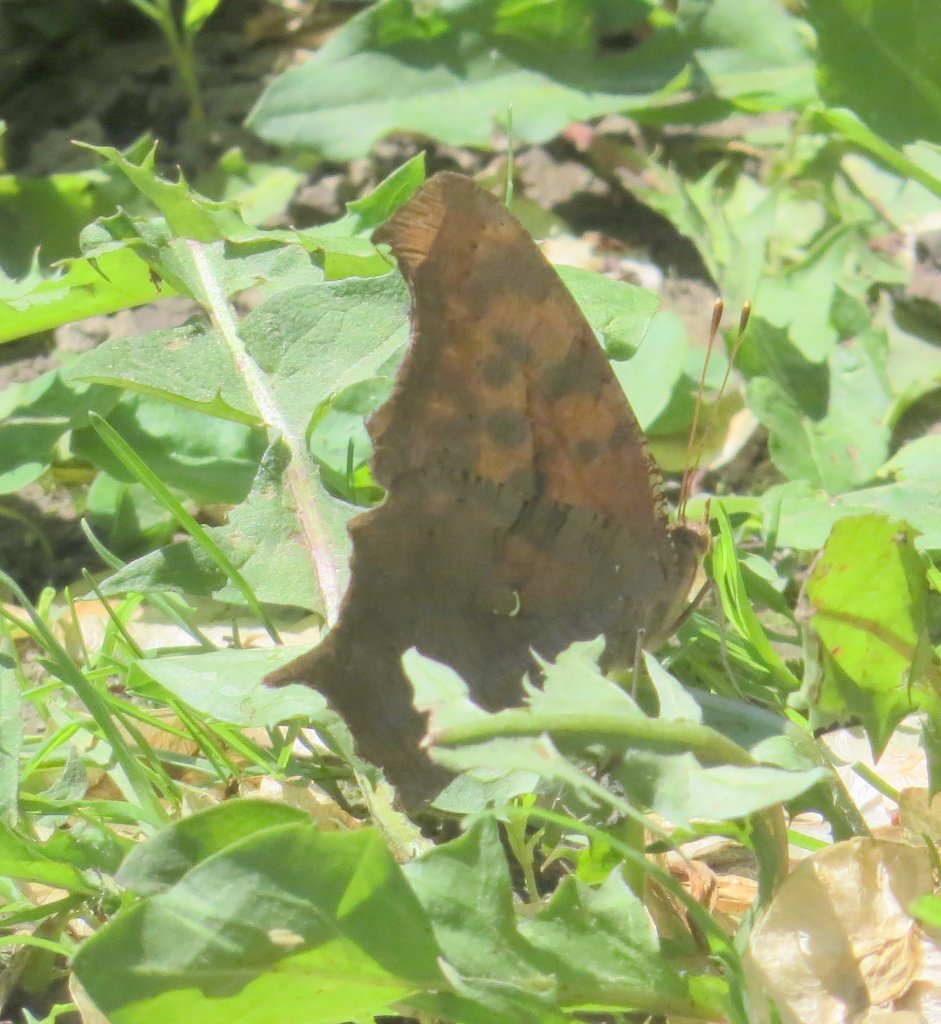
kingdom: Animalia
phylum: Arthropoda
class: Insecta
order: Lepidoptera
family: Nymphalidae
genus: Polygonia
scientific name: Polygonia interrogationis
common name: Question Mark
